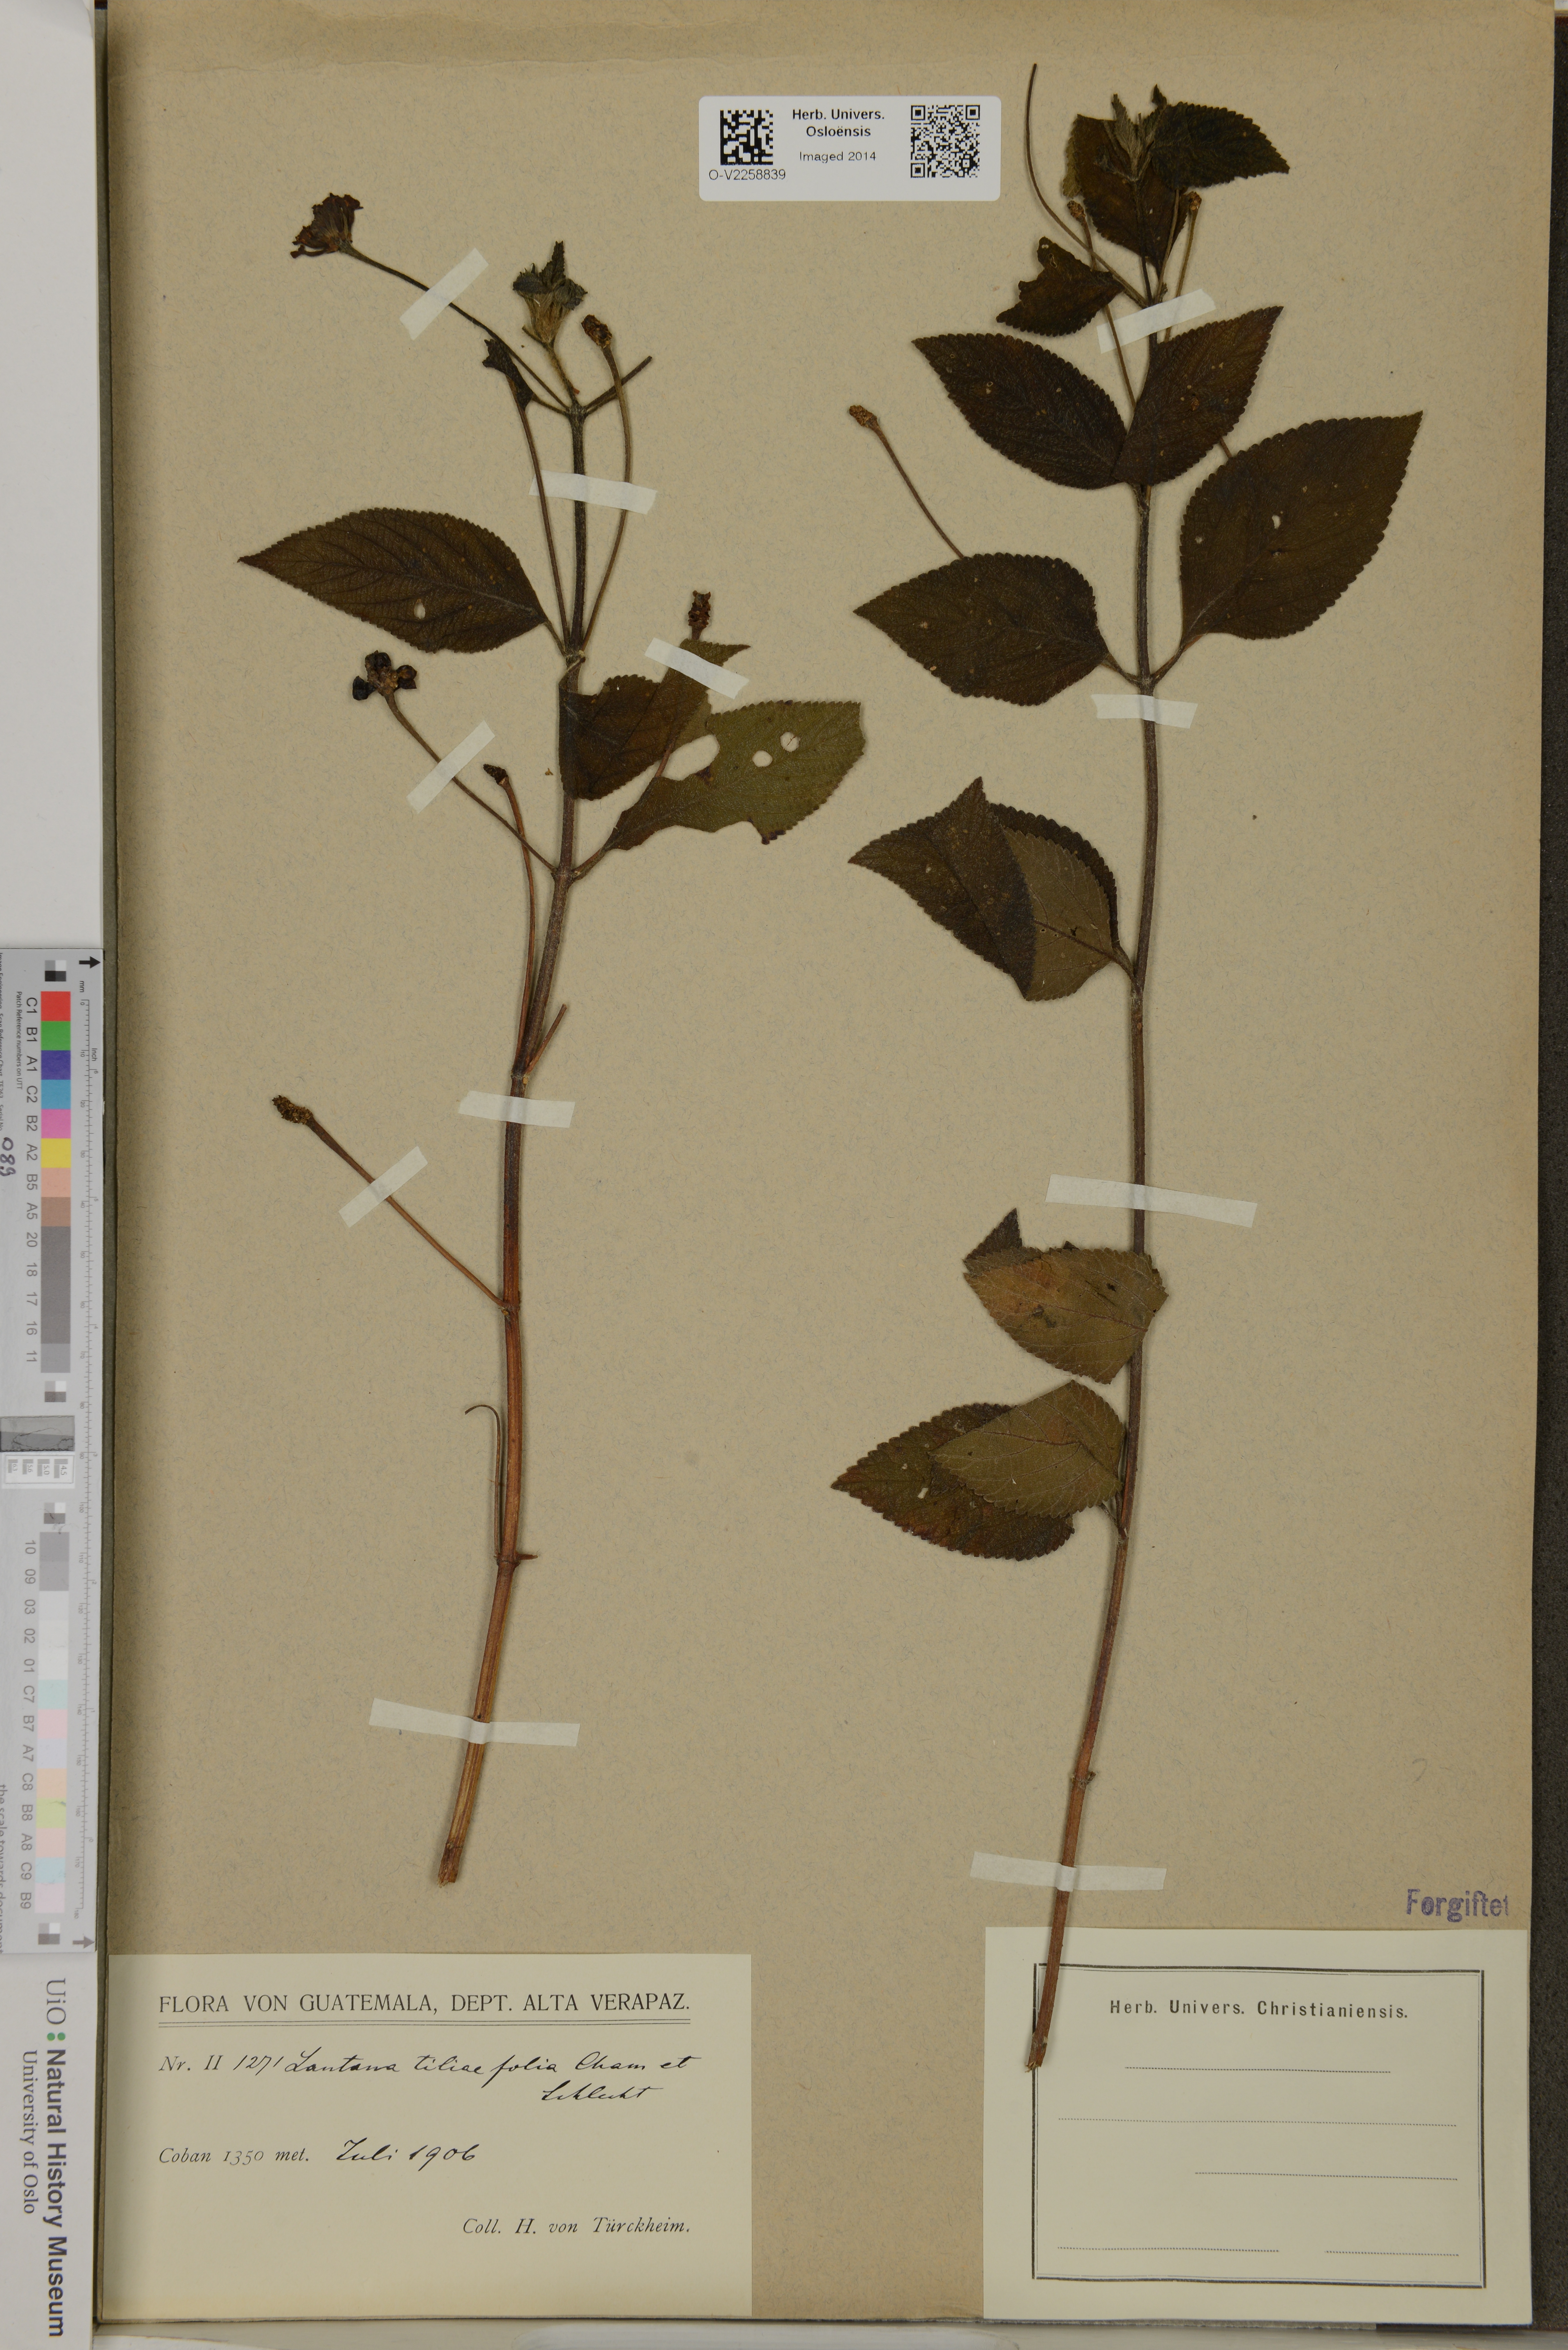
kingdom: Plantae
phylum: Tracheophyta
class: Magnoliopsida
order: Lamiales
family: Verbenaceae
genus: Lantana
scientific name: Lantana horrida
